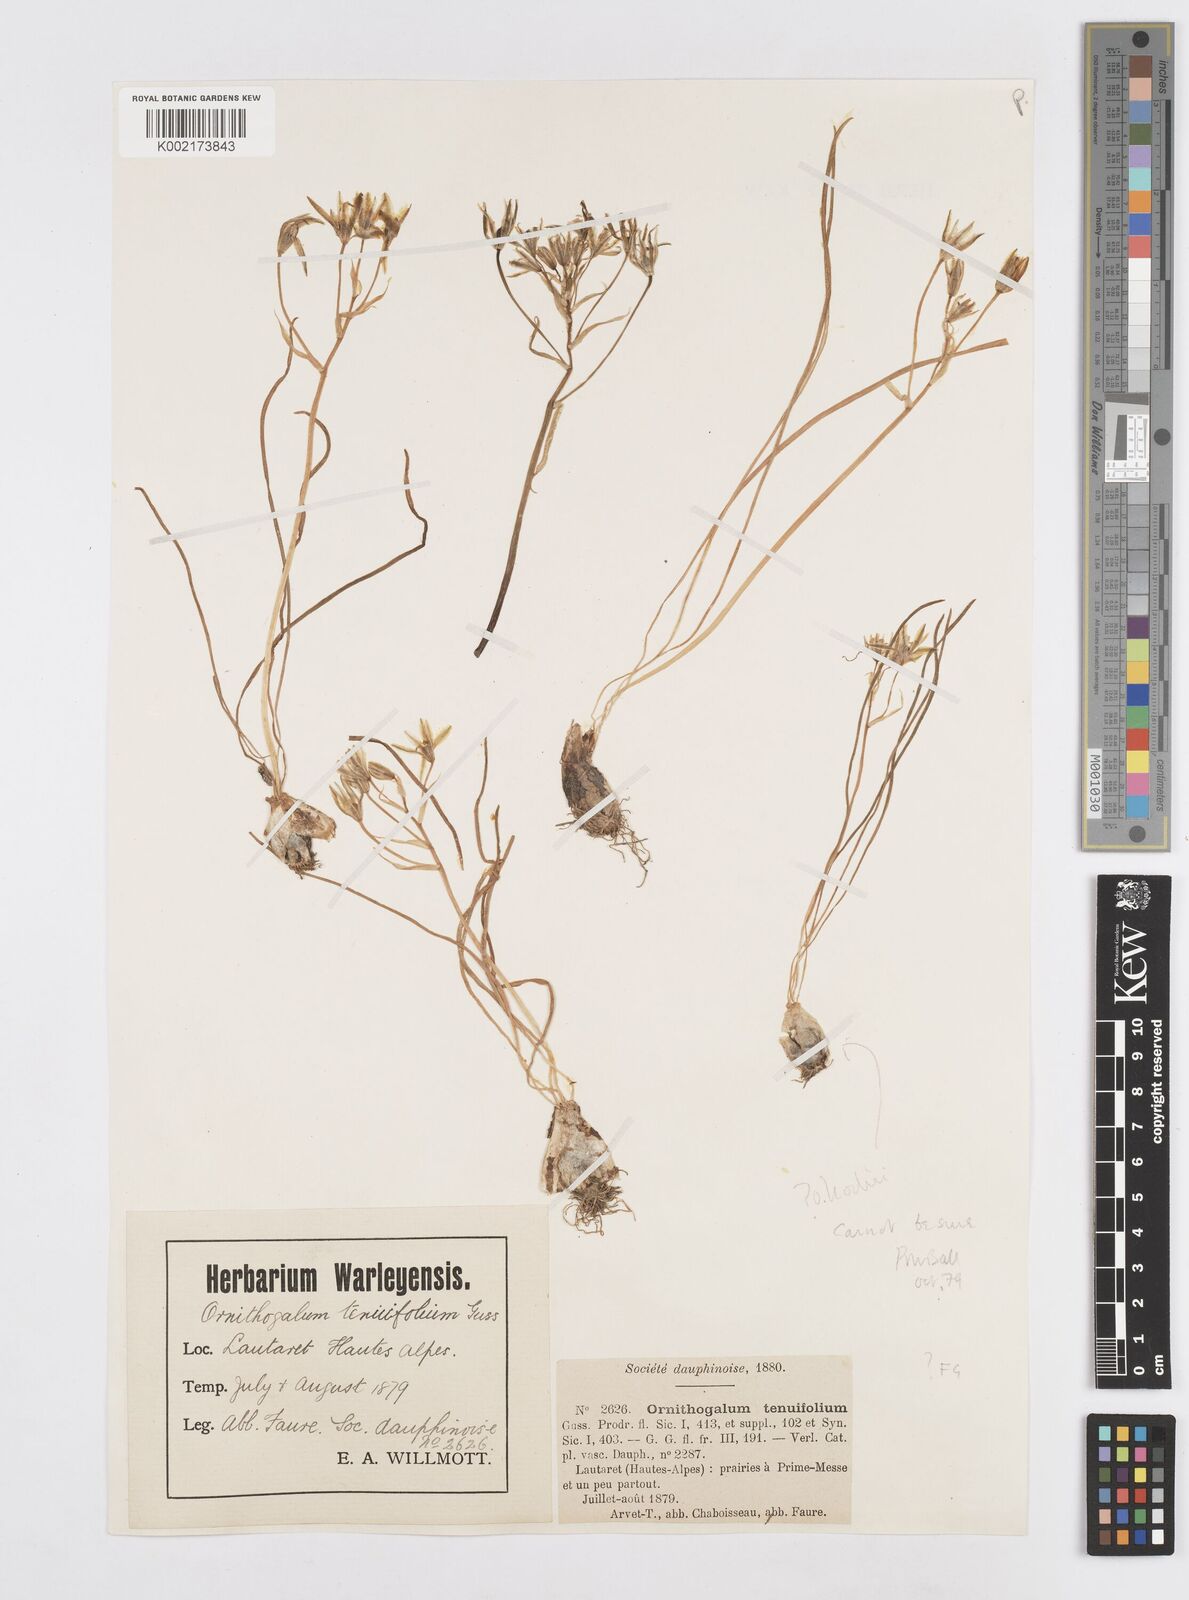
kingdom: Plantae
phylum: Tracheophyta
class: Liliopsida
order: Asparagales
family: Asparagaceae
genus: Ornithogalum
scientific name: Ornithogalum orthophyllum
